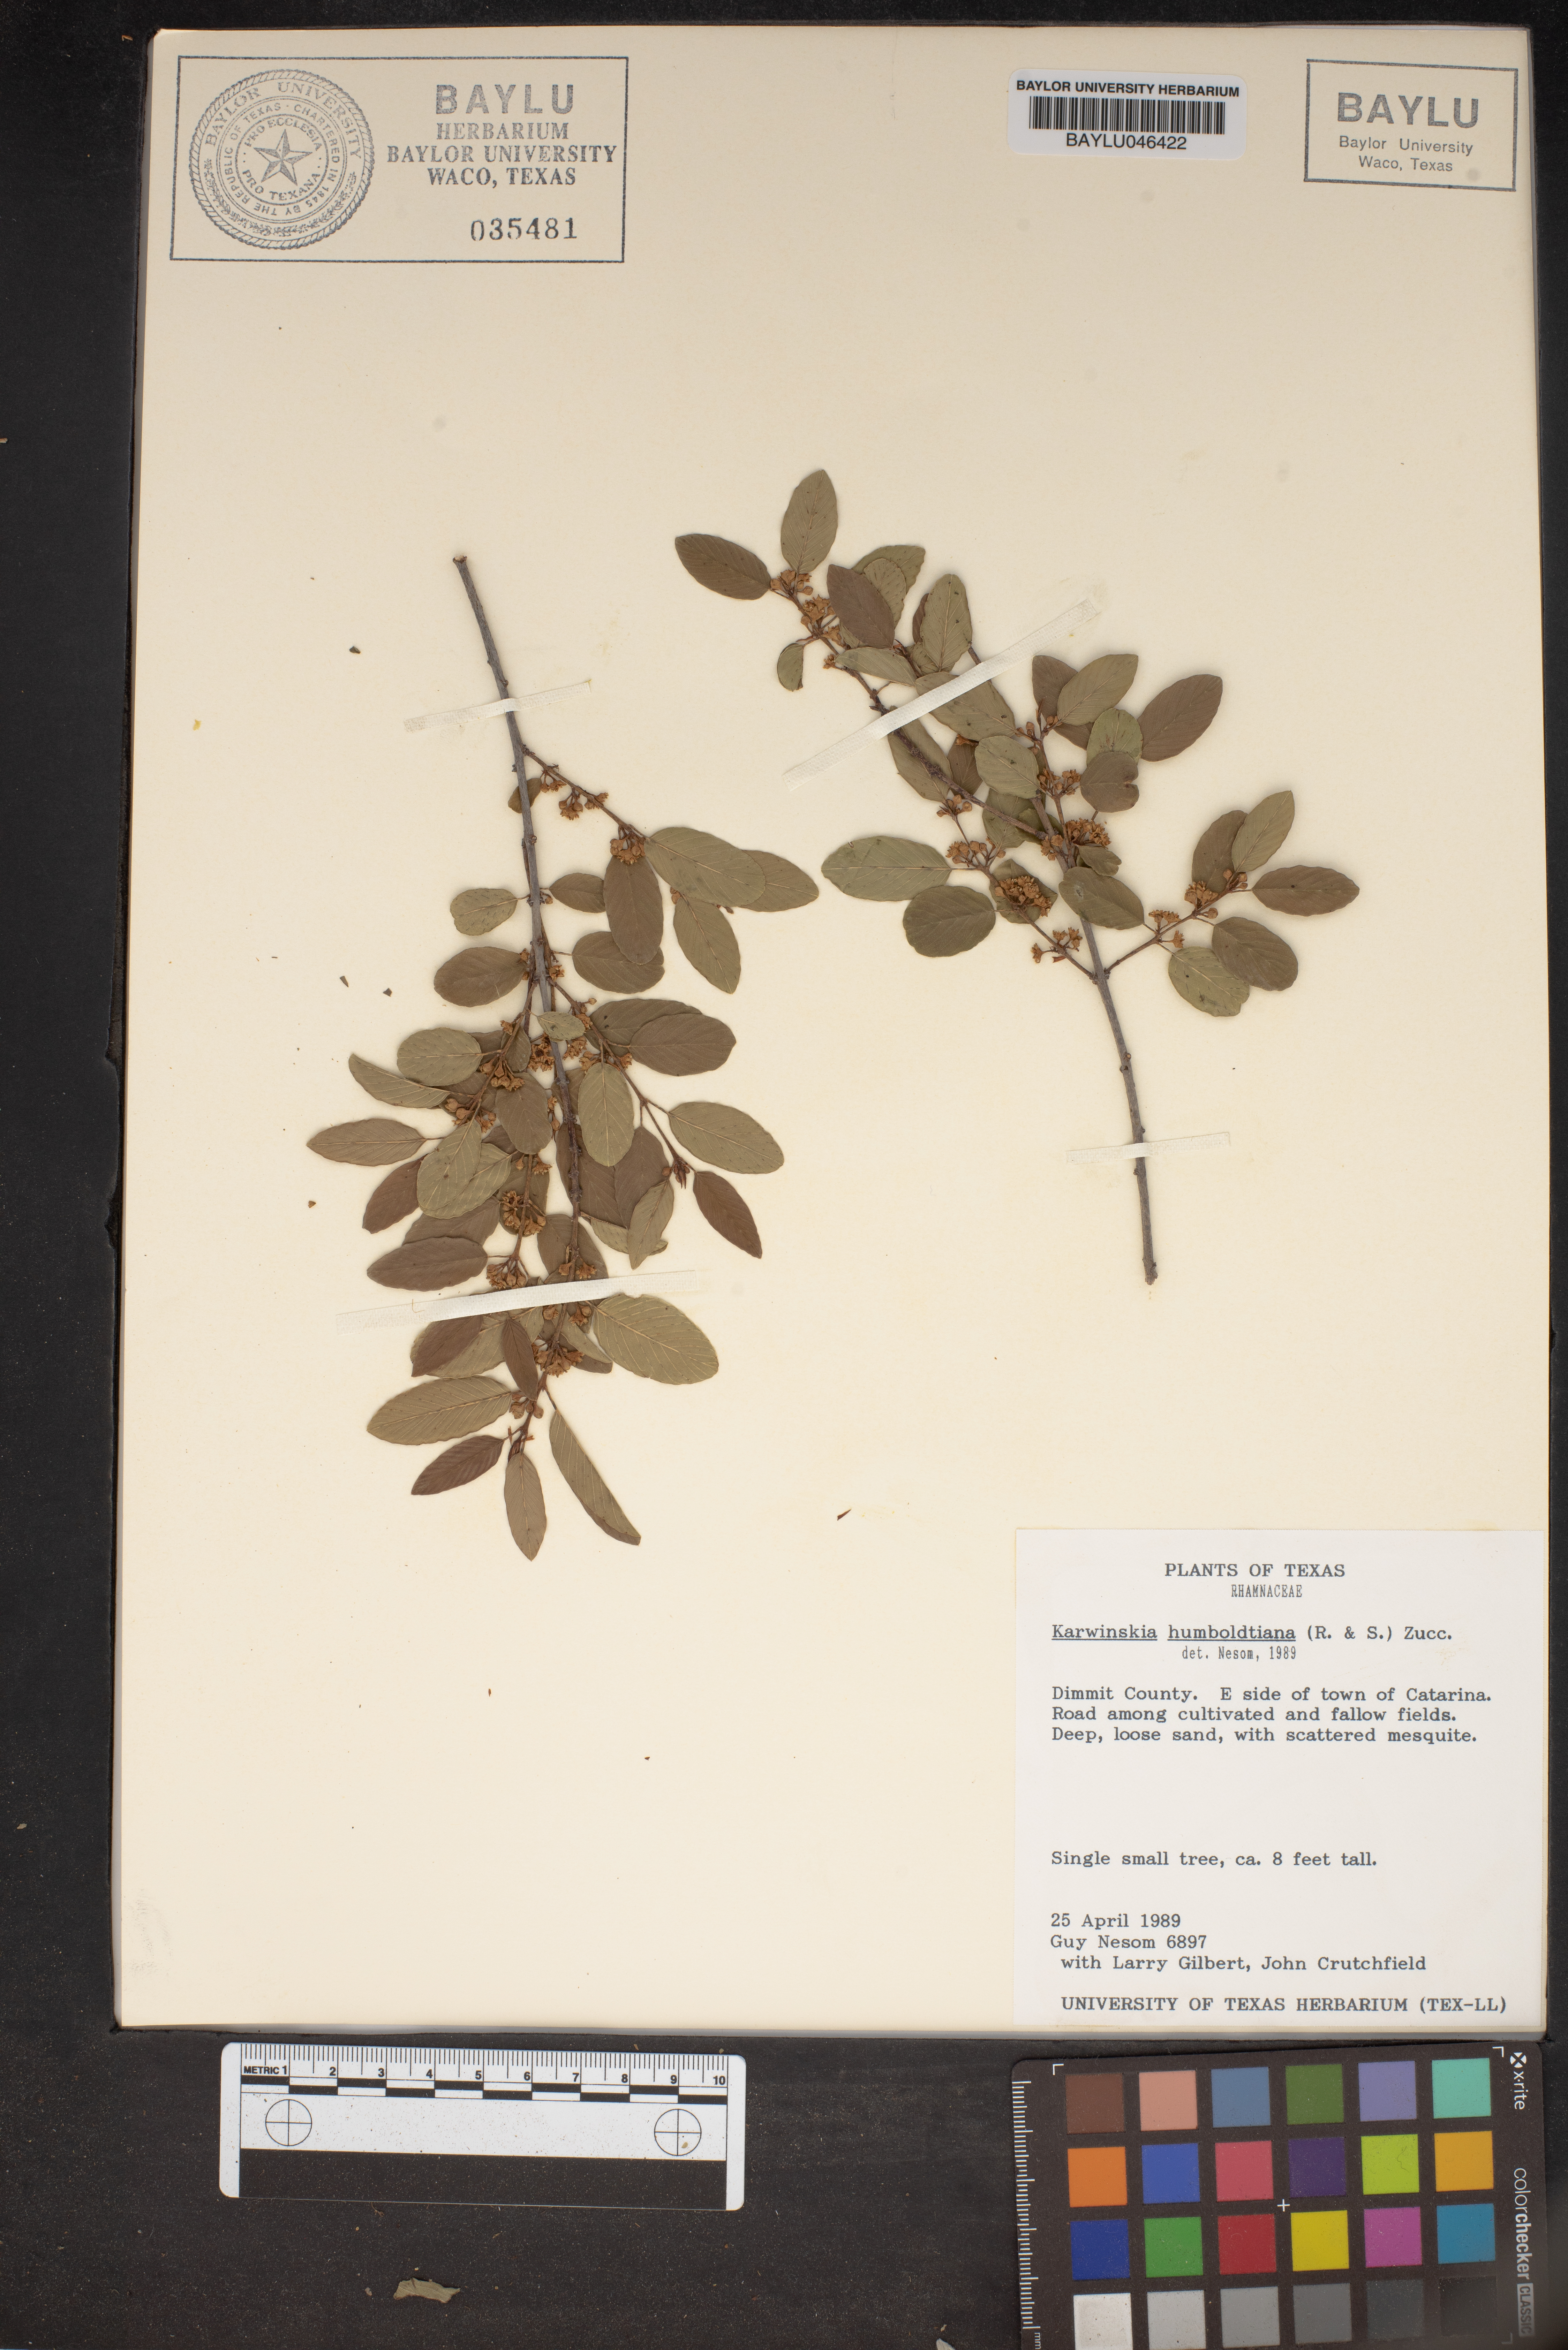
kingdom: Plantae
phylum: Tracheophyta
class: Magnoliopsida
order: Rosales
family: Rhamnaceae
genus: Karwinskia
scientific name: Karwinskia humboldtiana
